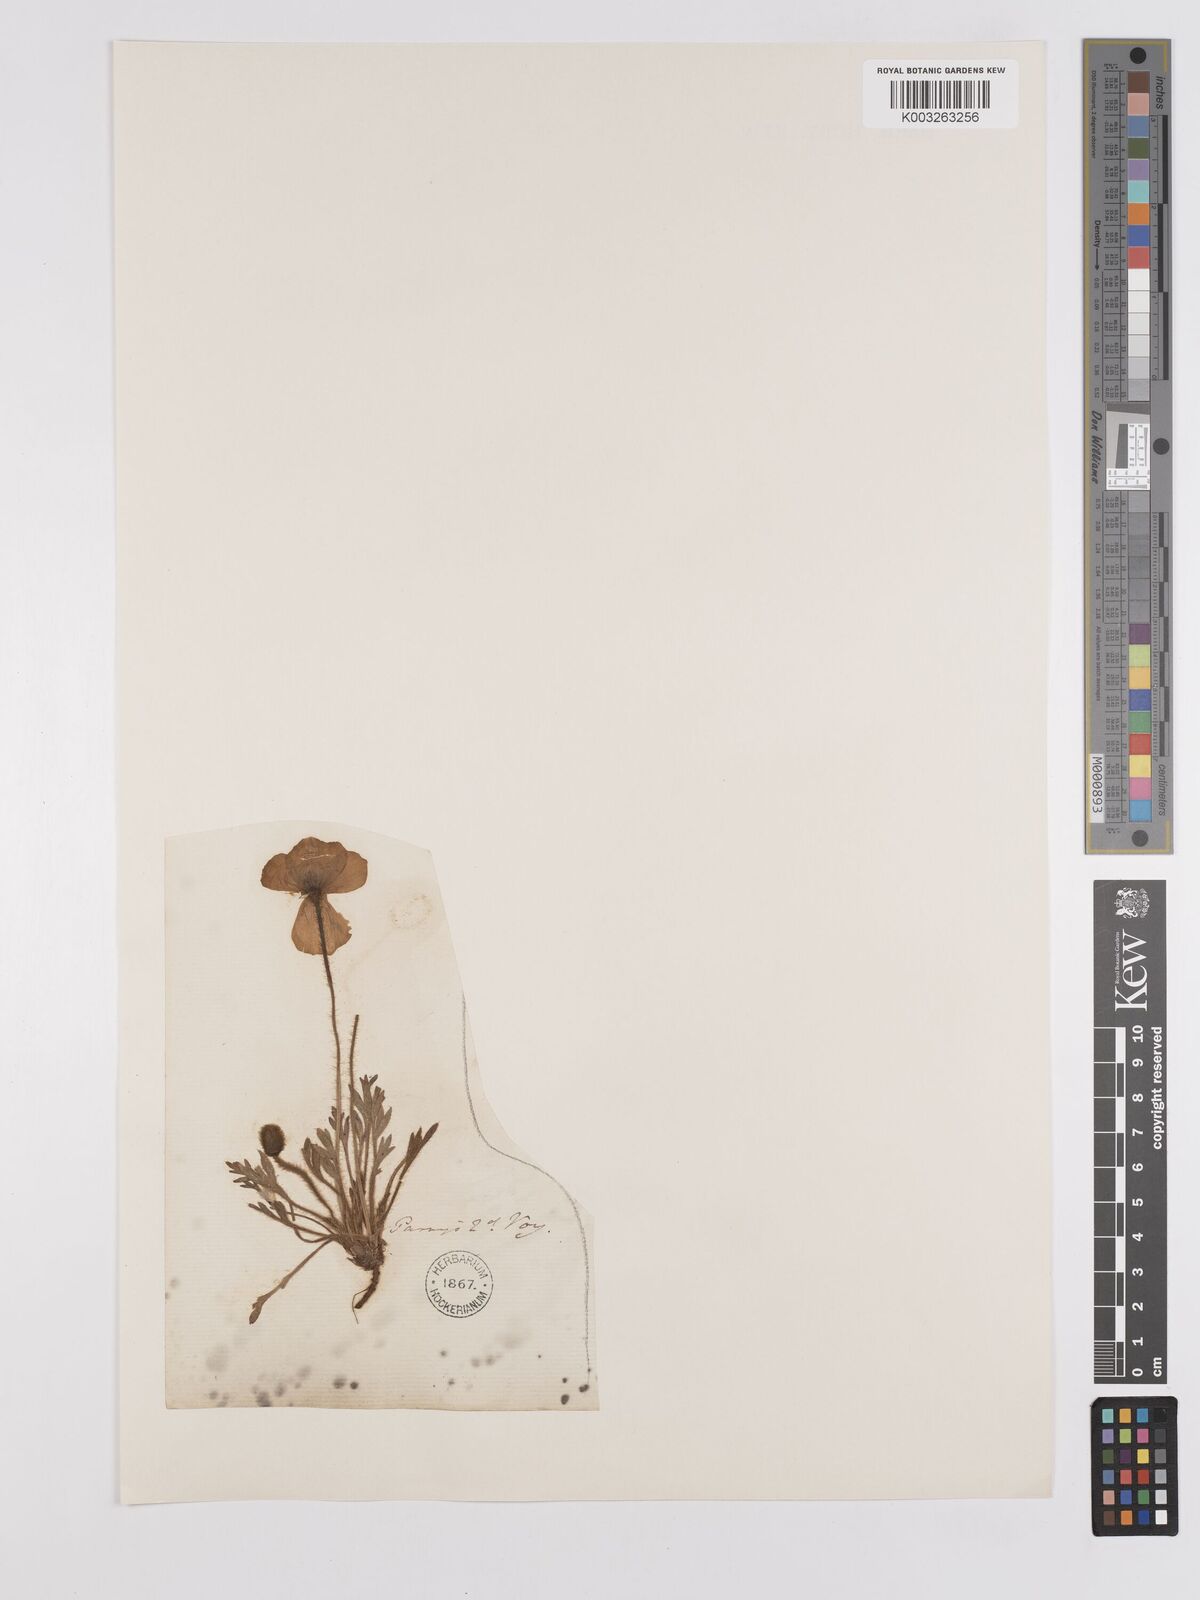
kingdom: Plantae
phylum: Tracheophyta
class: Magnoliopsida
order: Ranunculales
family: Papaveraceae
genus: Papaver
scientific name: Papaver radicatum
